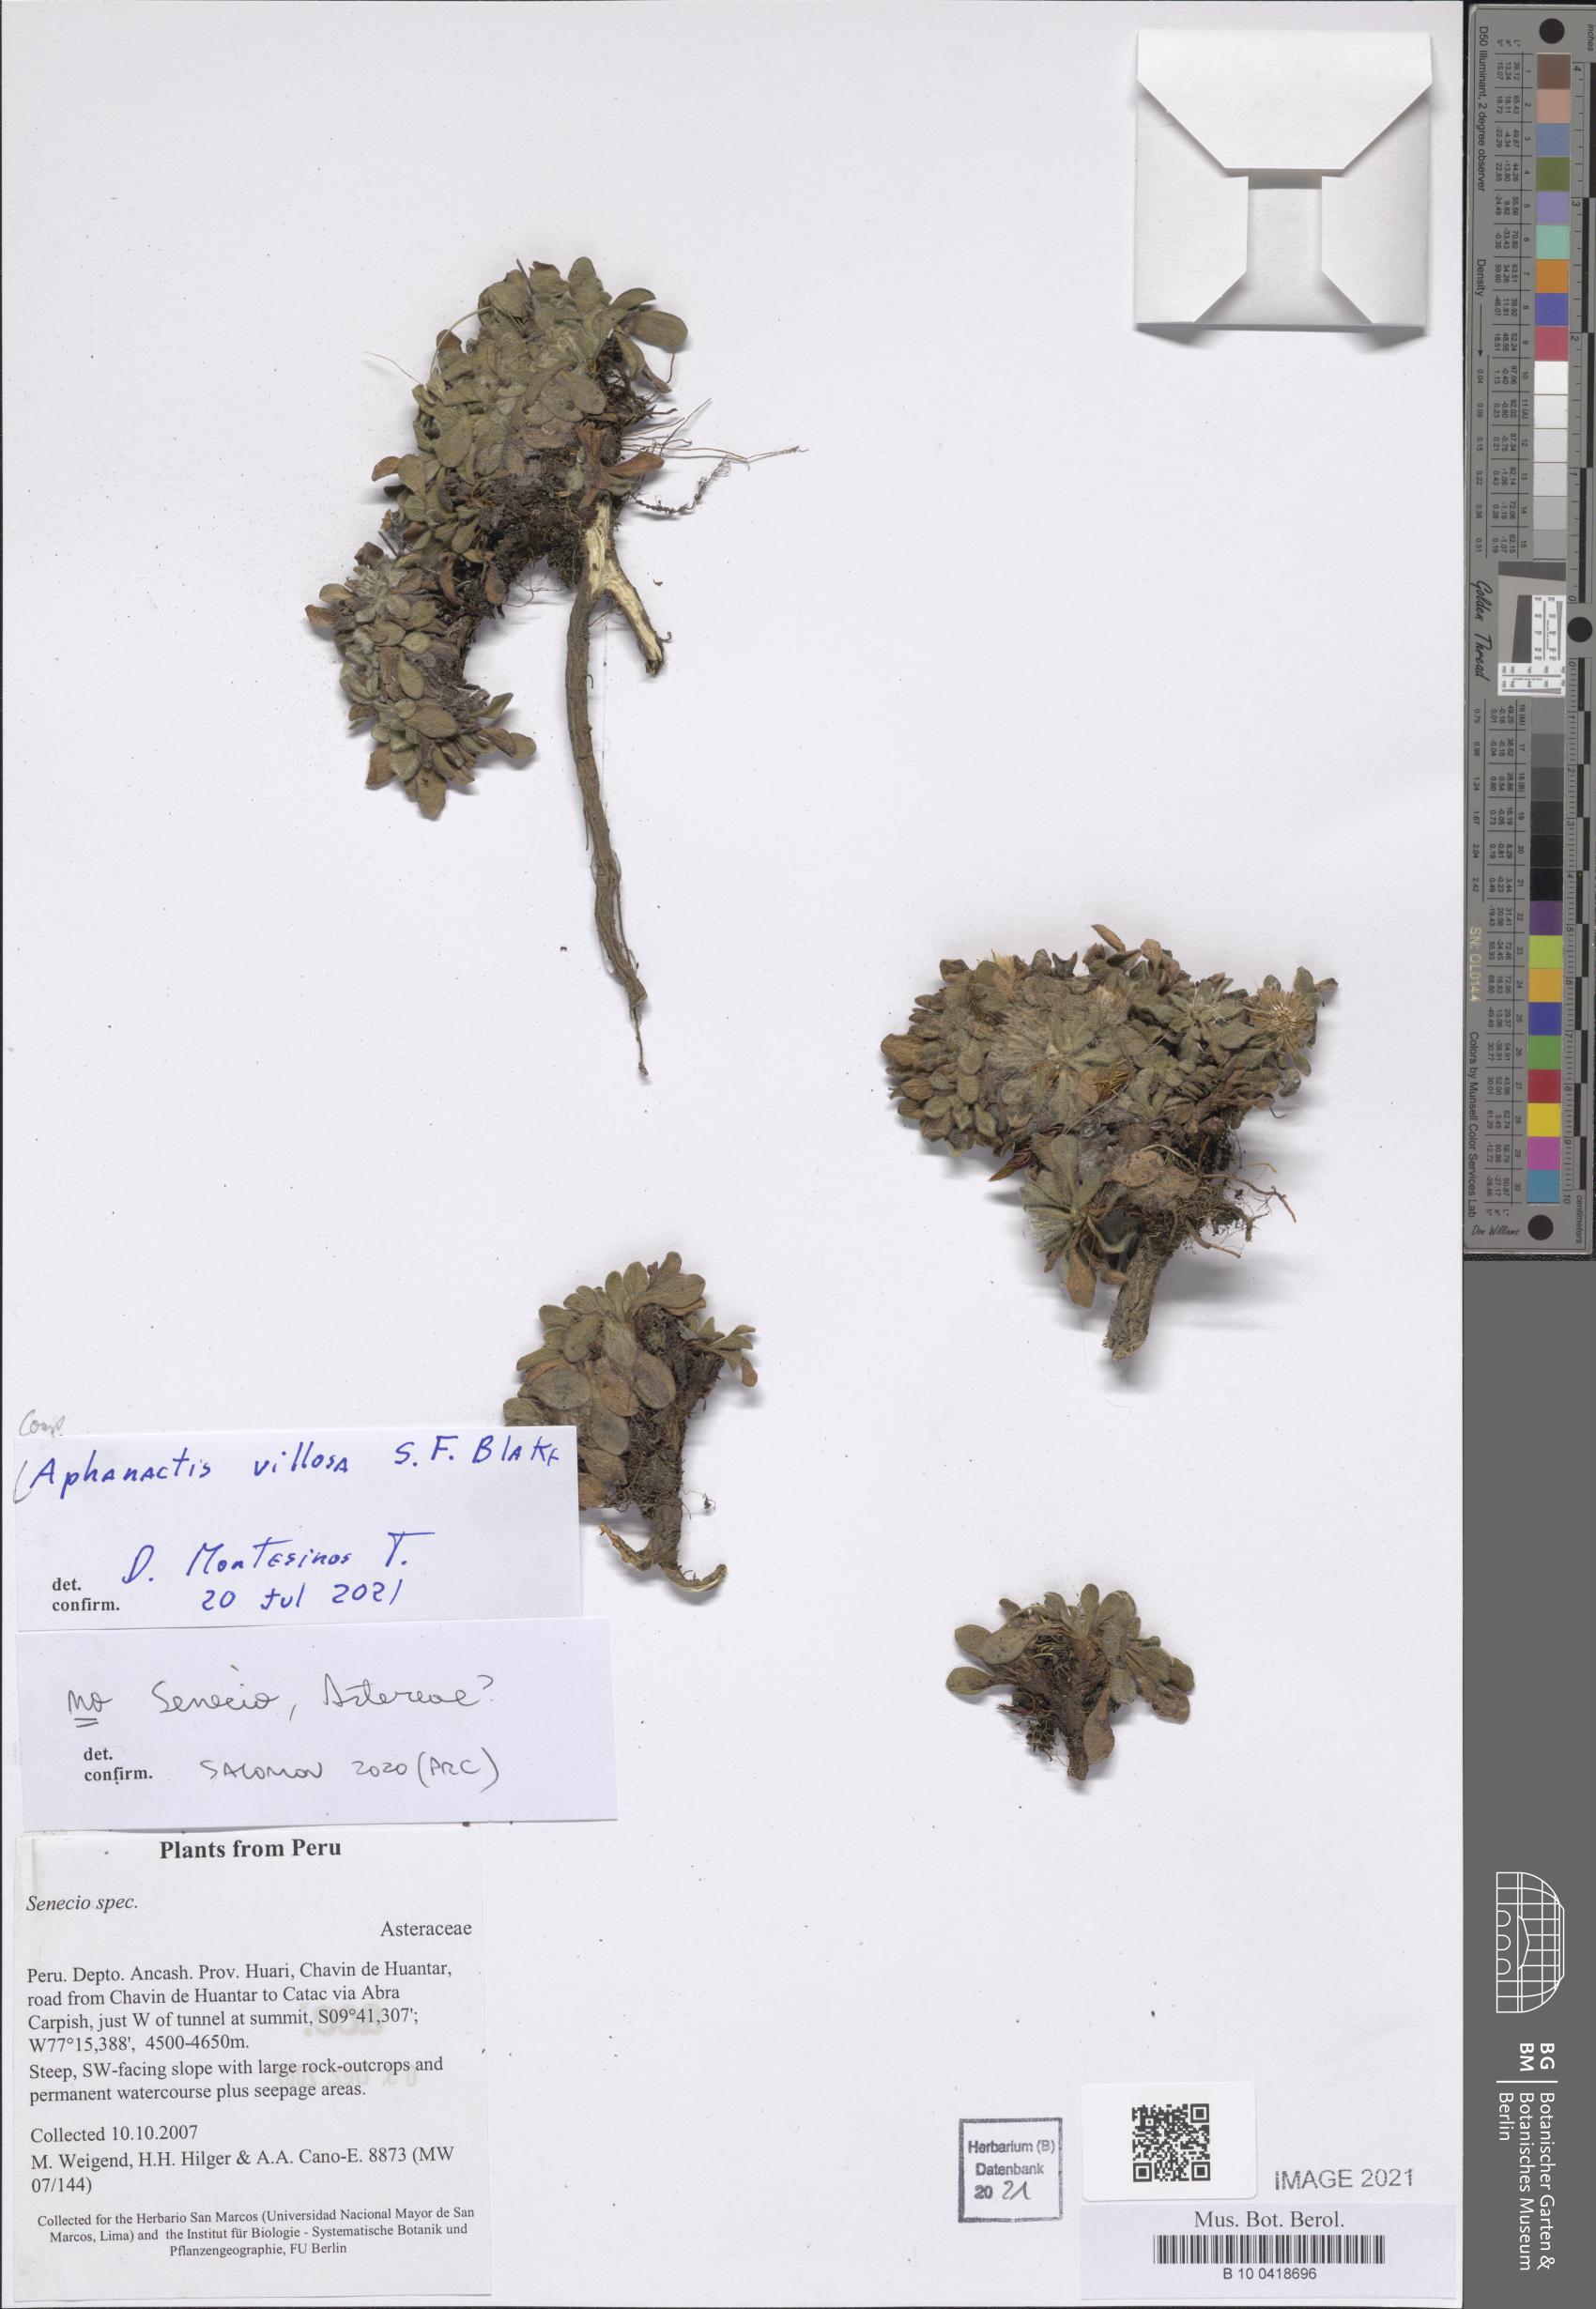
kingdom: Plantae
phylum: Tracheophyta
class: Magnoliopsida
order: Asterales
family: Asteraceae
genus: Aphanactis
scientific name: Aphanactis villosa
